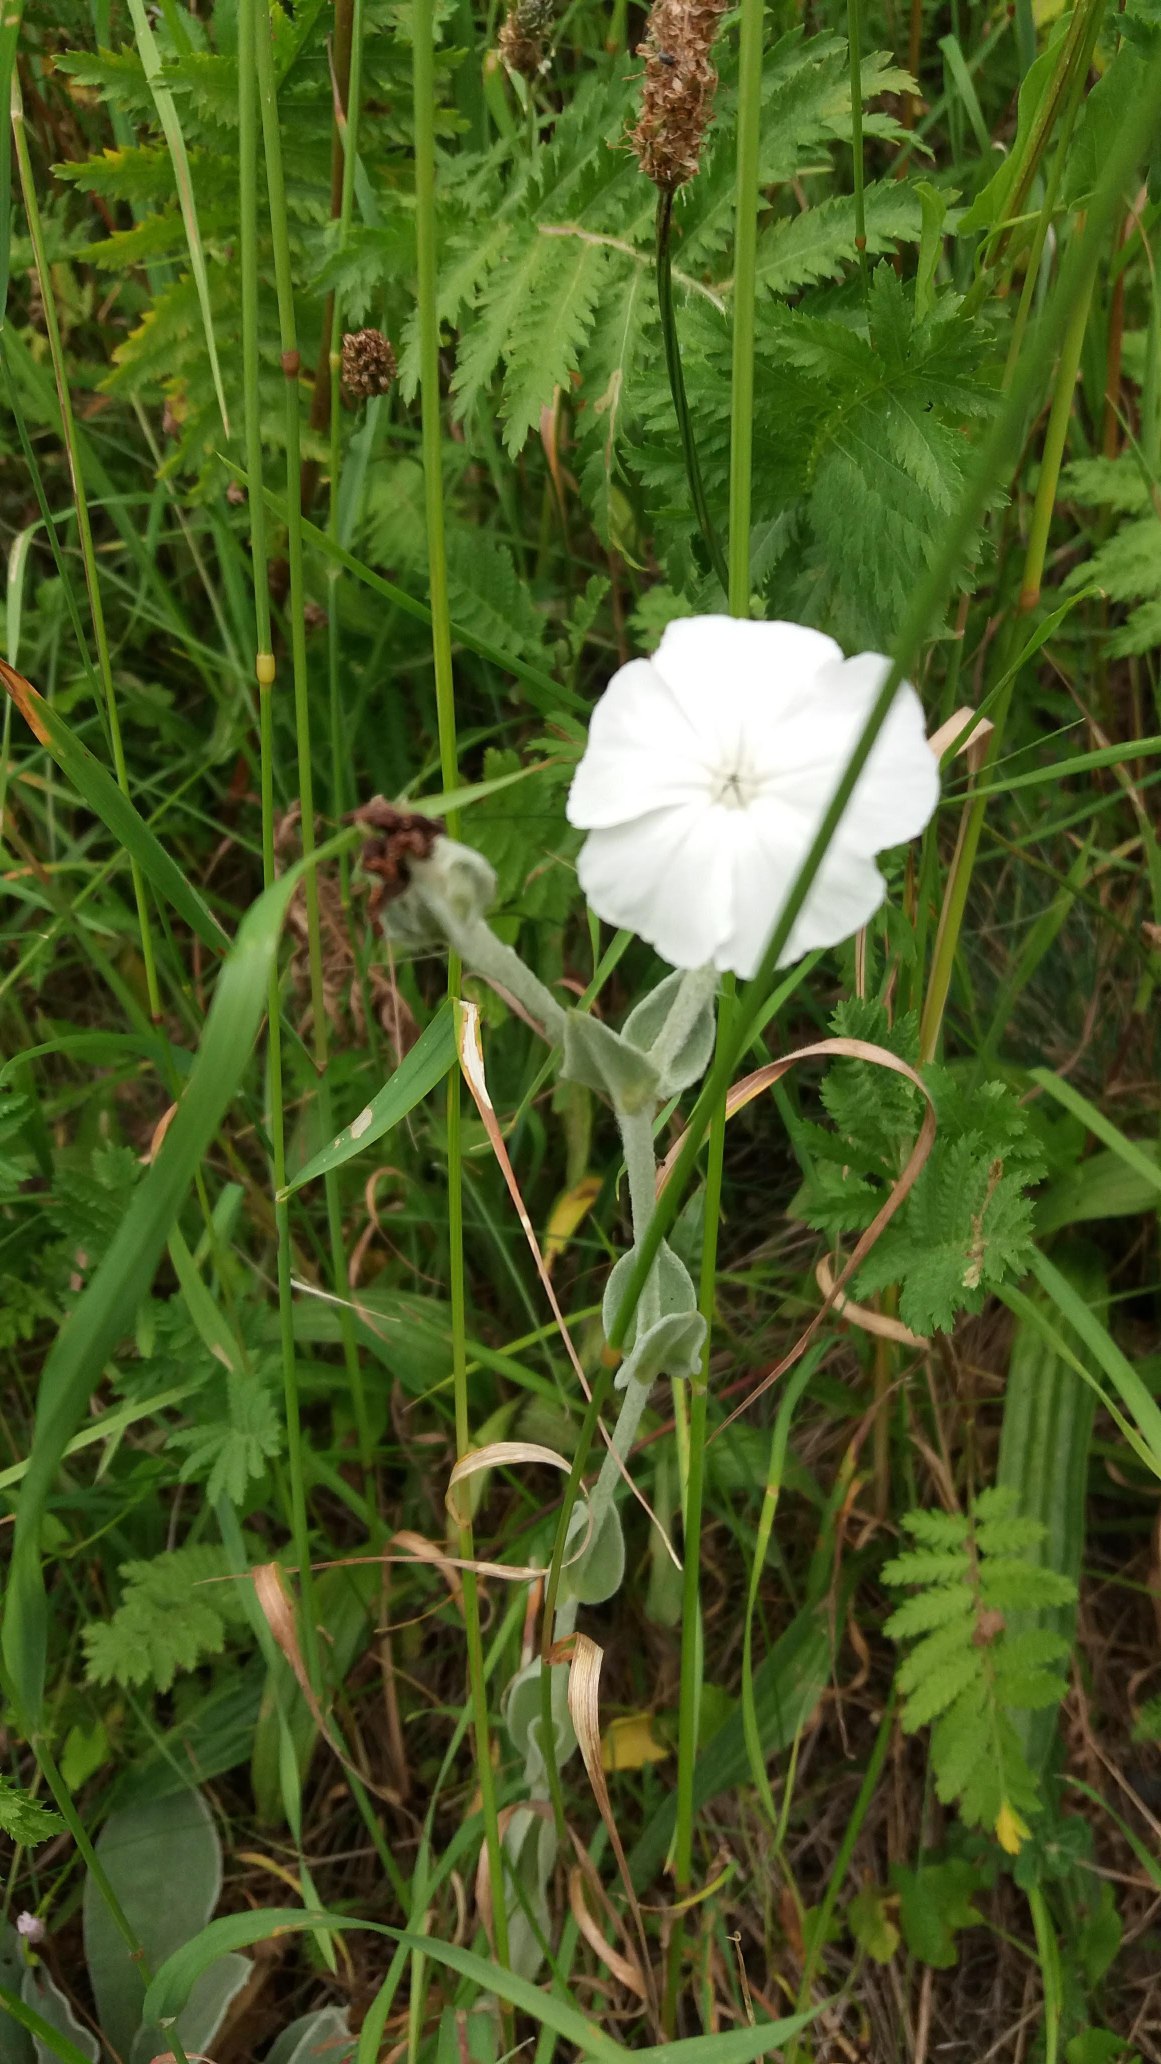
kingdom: Plantae
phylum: Tracheophyta
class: Magnoliopsida
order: Caryophyllales
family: Caryophyllaceae
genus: Silene
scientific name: Silene coronaria
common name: Fiksernellike
